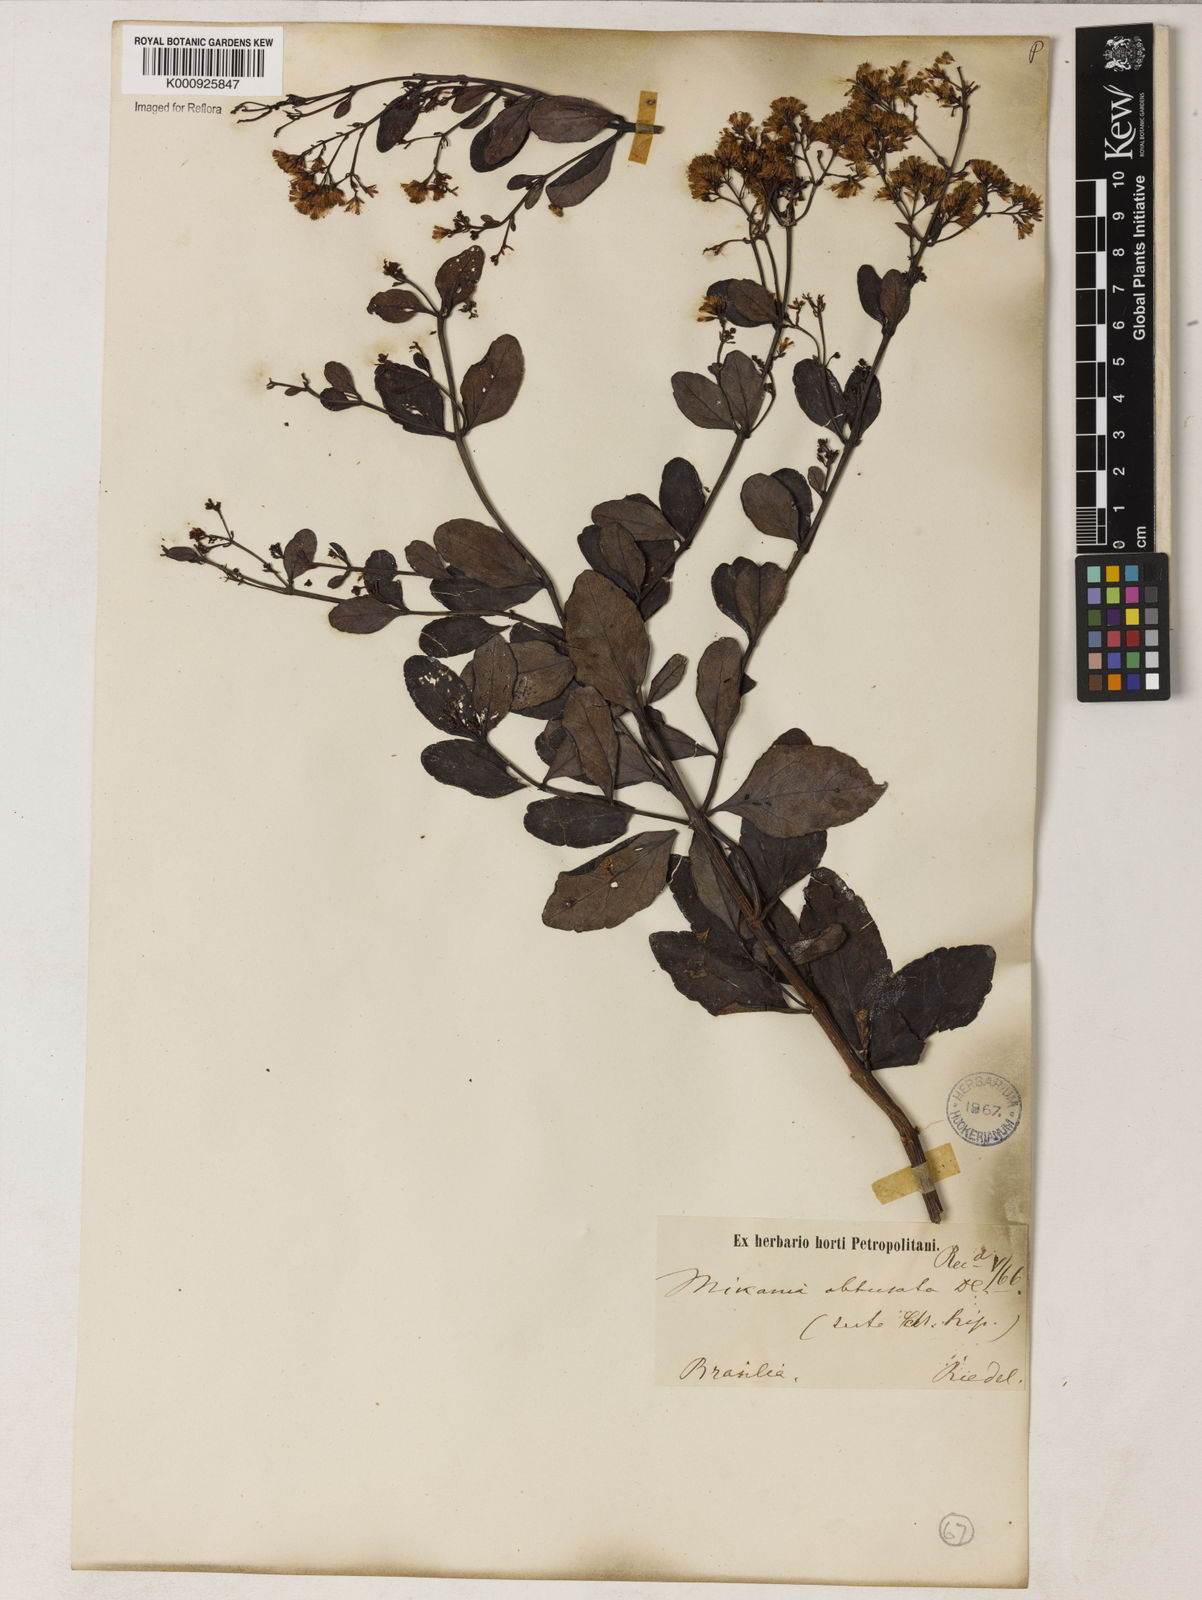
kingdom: Plantae
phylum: Tracheophyta
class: Magnoliopsida
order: Asterales
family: Asteraceae
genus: Mikania
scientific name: Mikania obtusata
